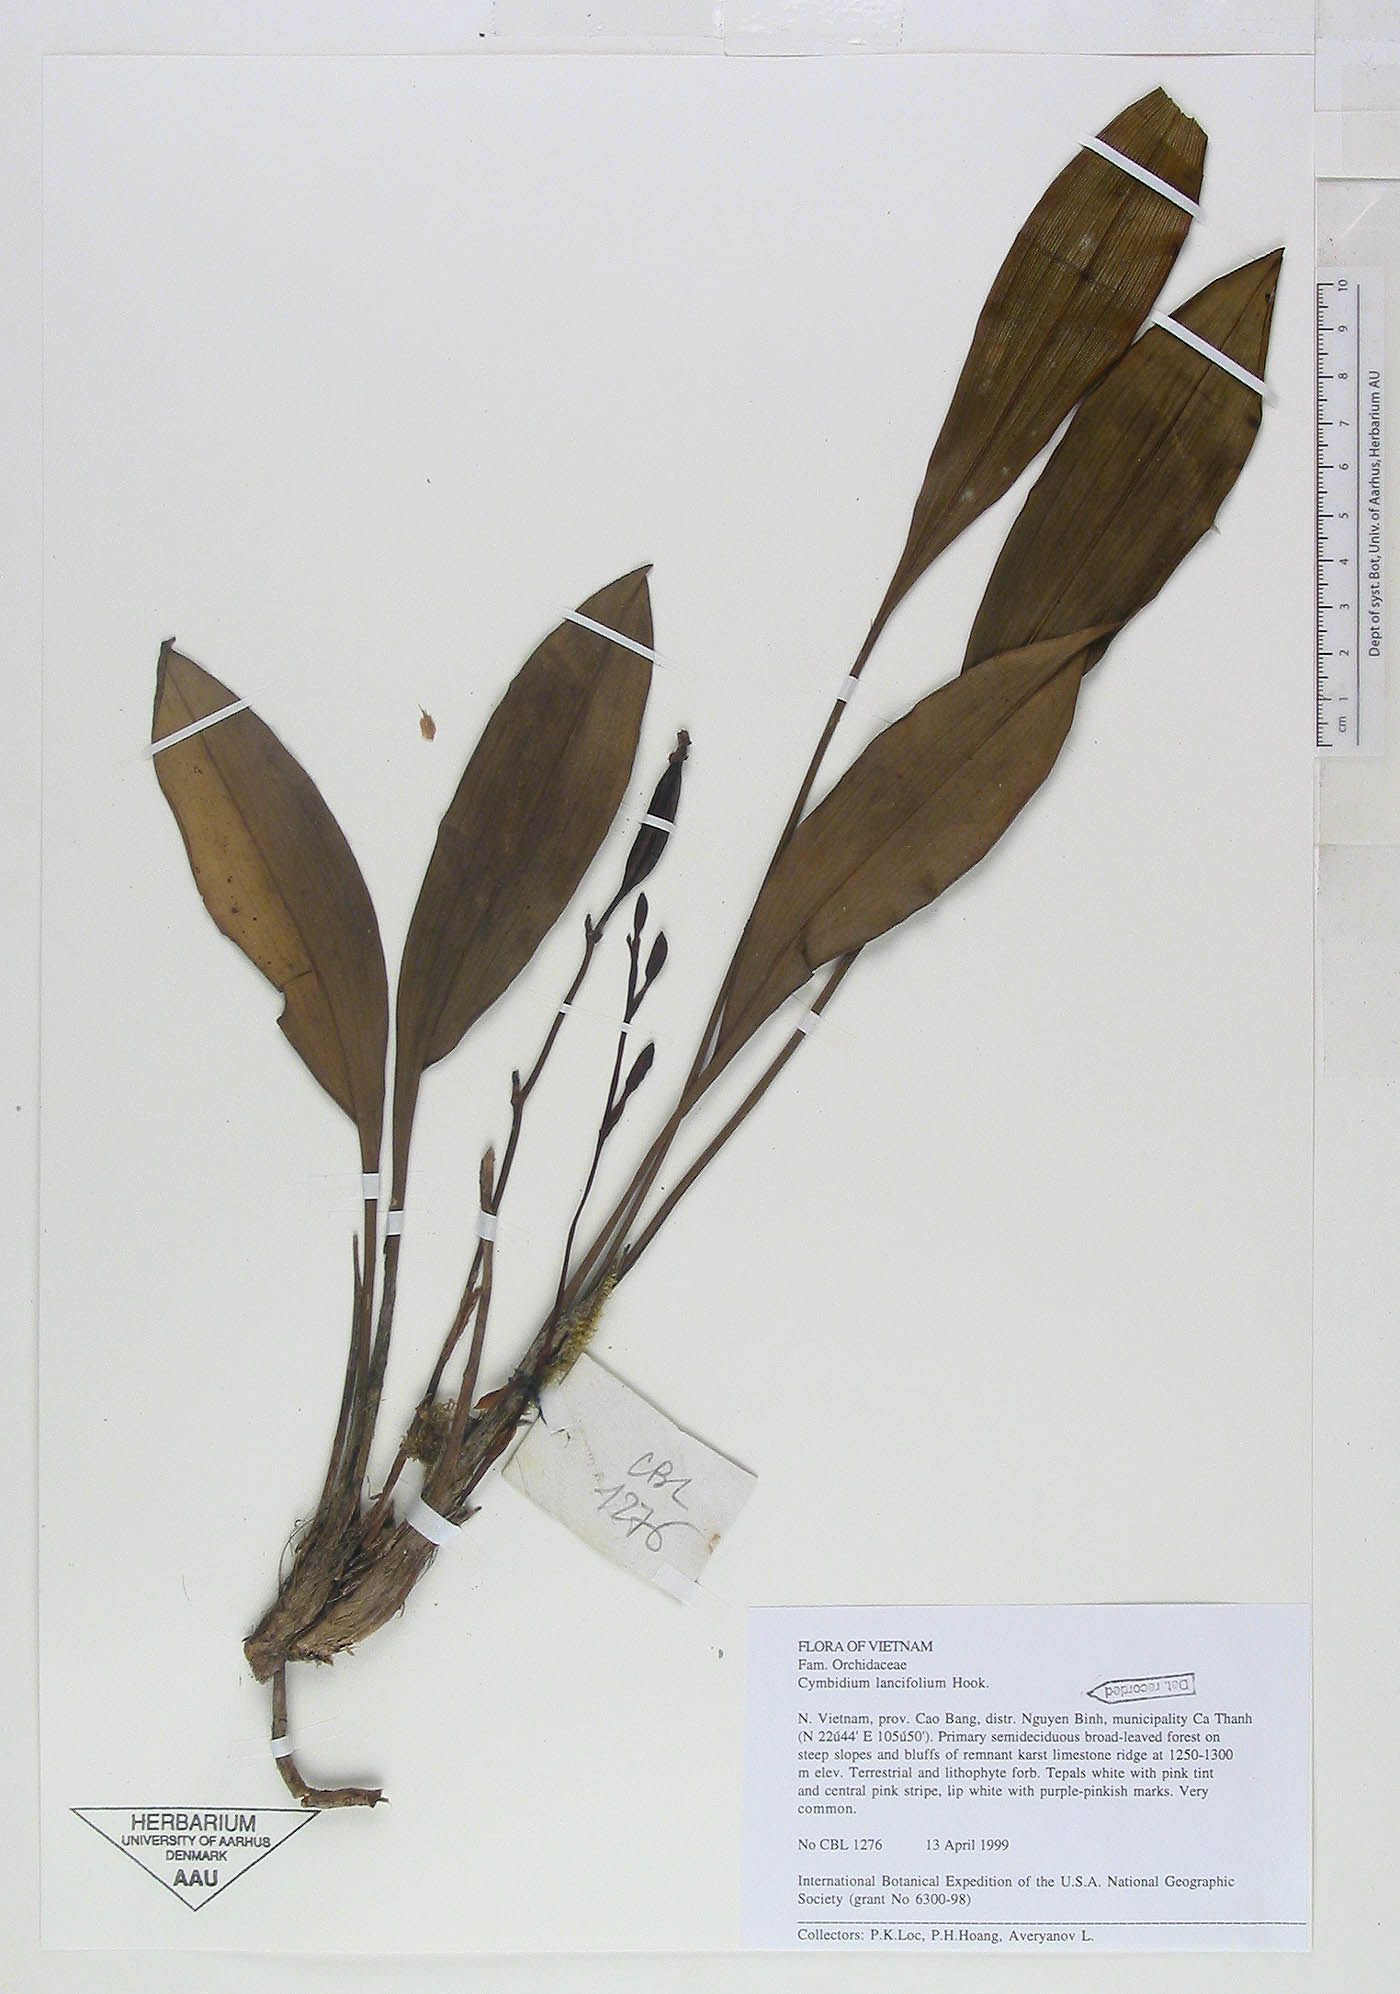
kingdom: Plantae
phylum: Tracheophyta
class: Liliopsida
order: Asparagales
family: Orchidaceae
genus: Cymbidium
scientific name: Cymbidium lancifolium
